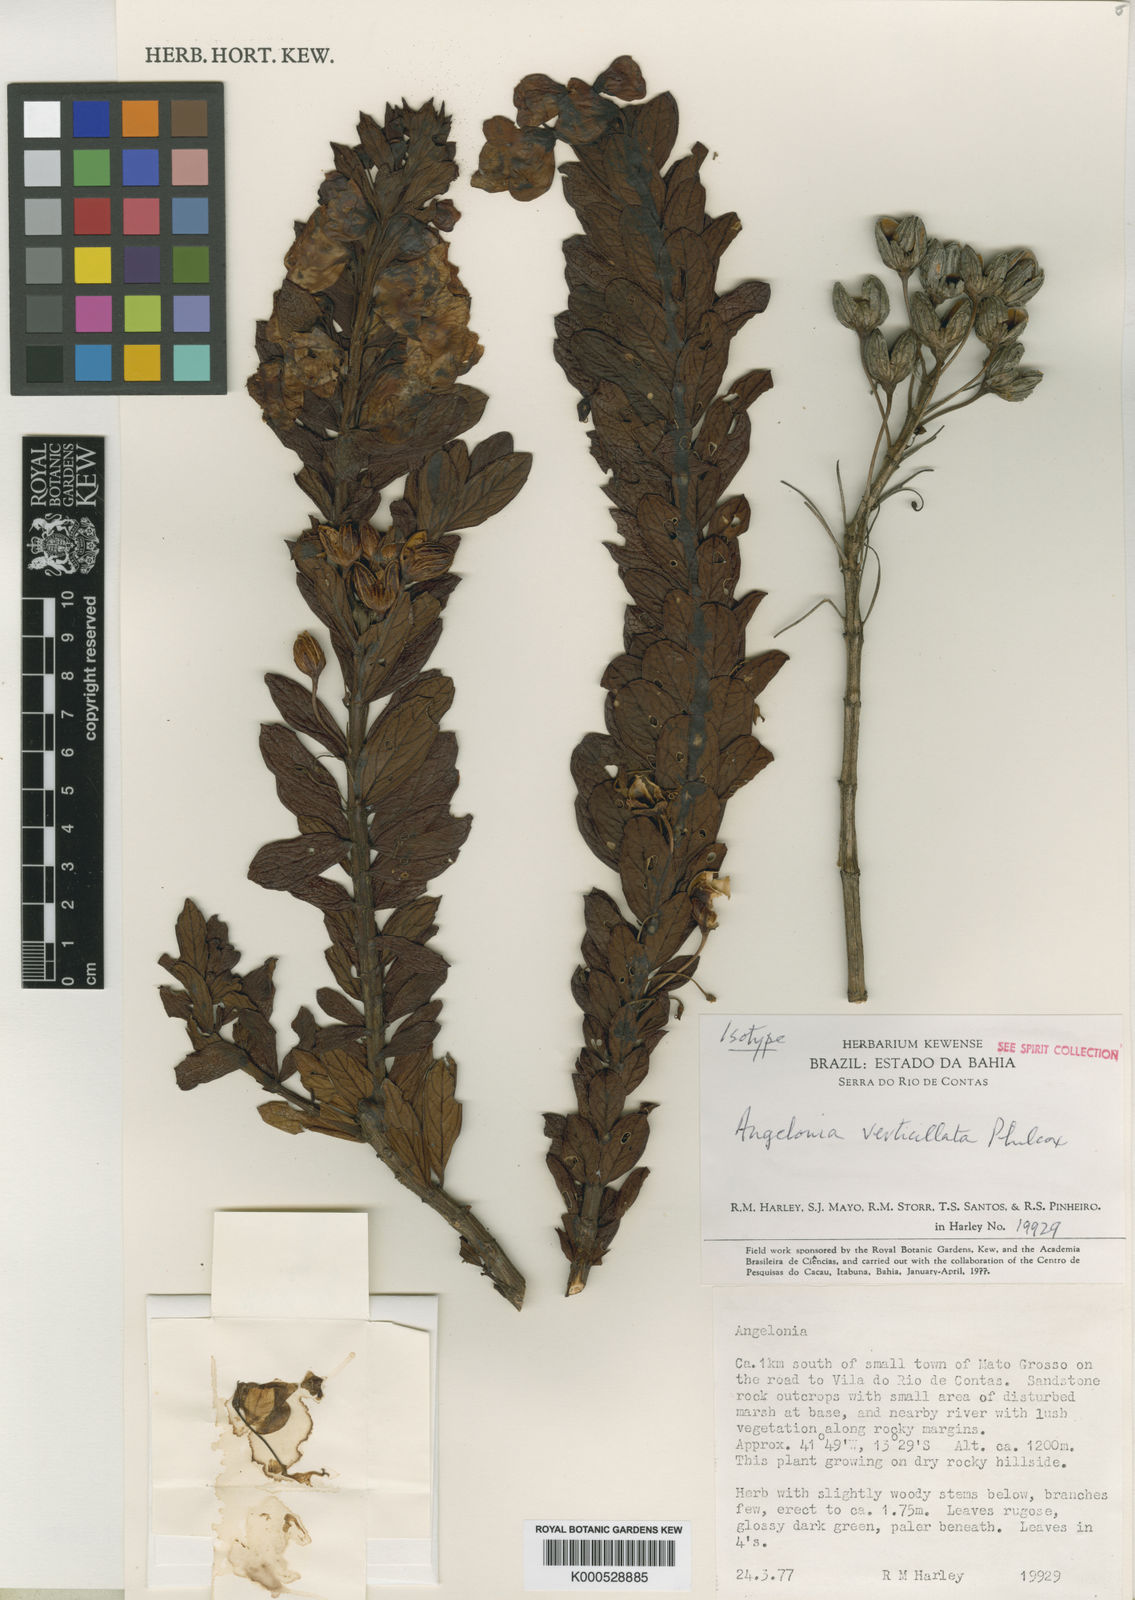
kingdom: Plantae
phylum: Tracheophyta
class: Magnoliopsida
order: Lamiales
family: Plantaginaceae
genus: Angelonia
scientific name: Angelonia verticillata
